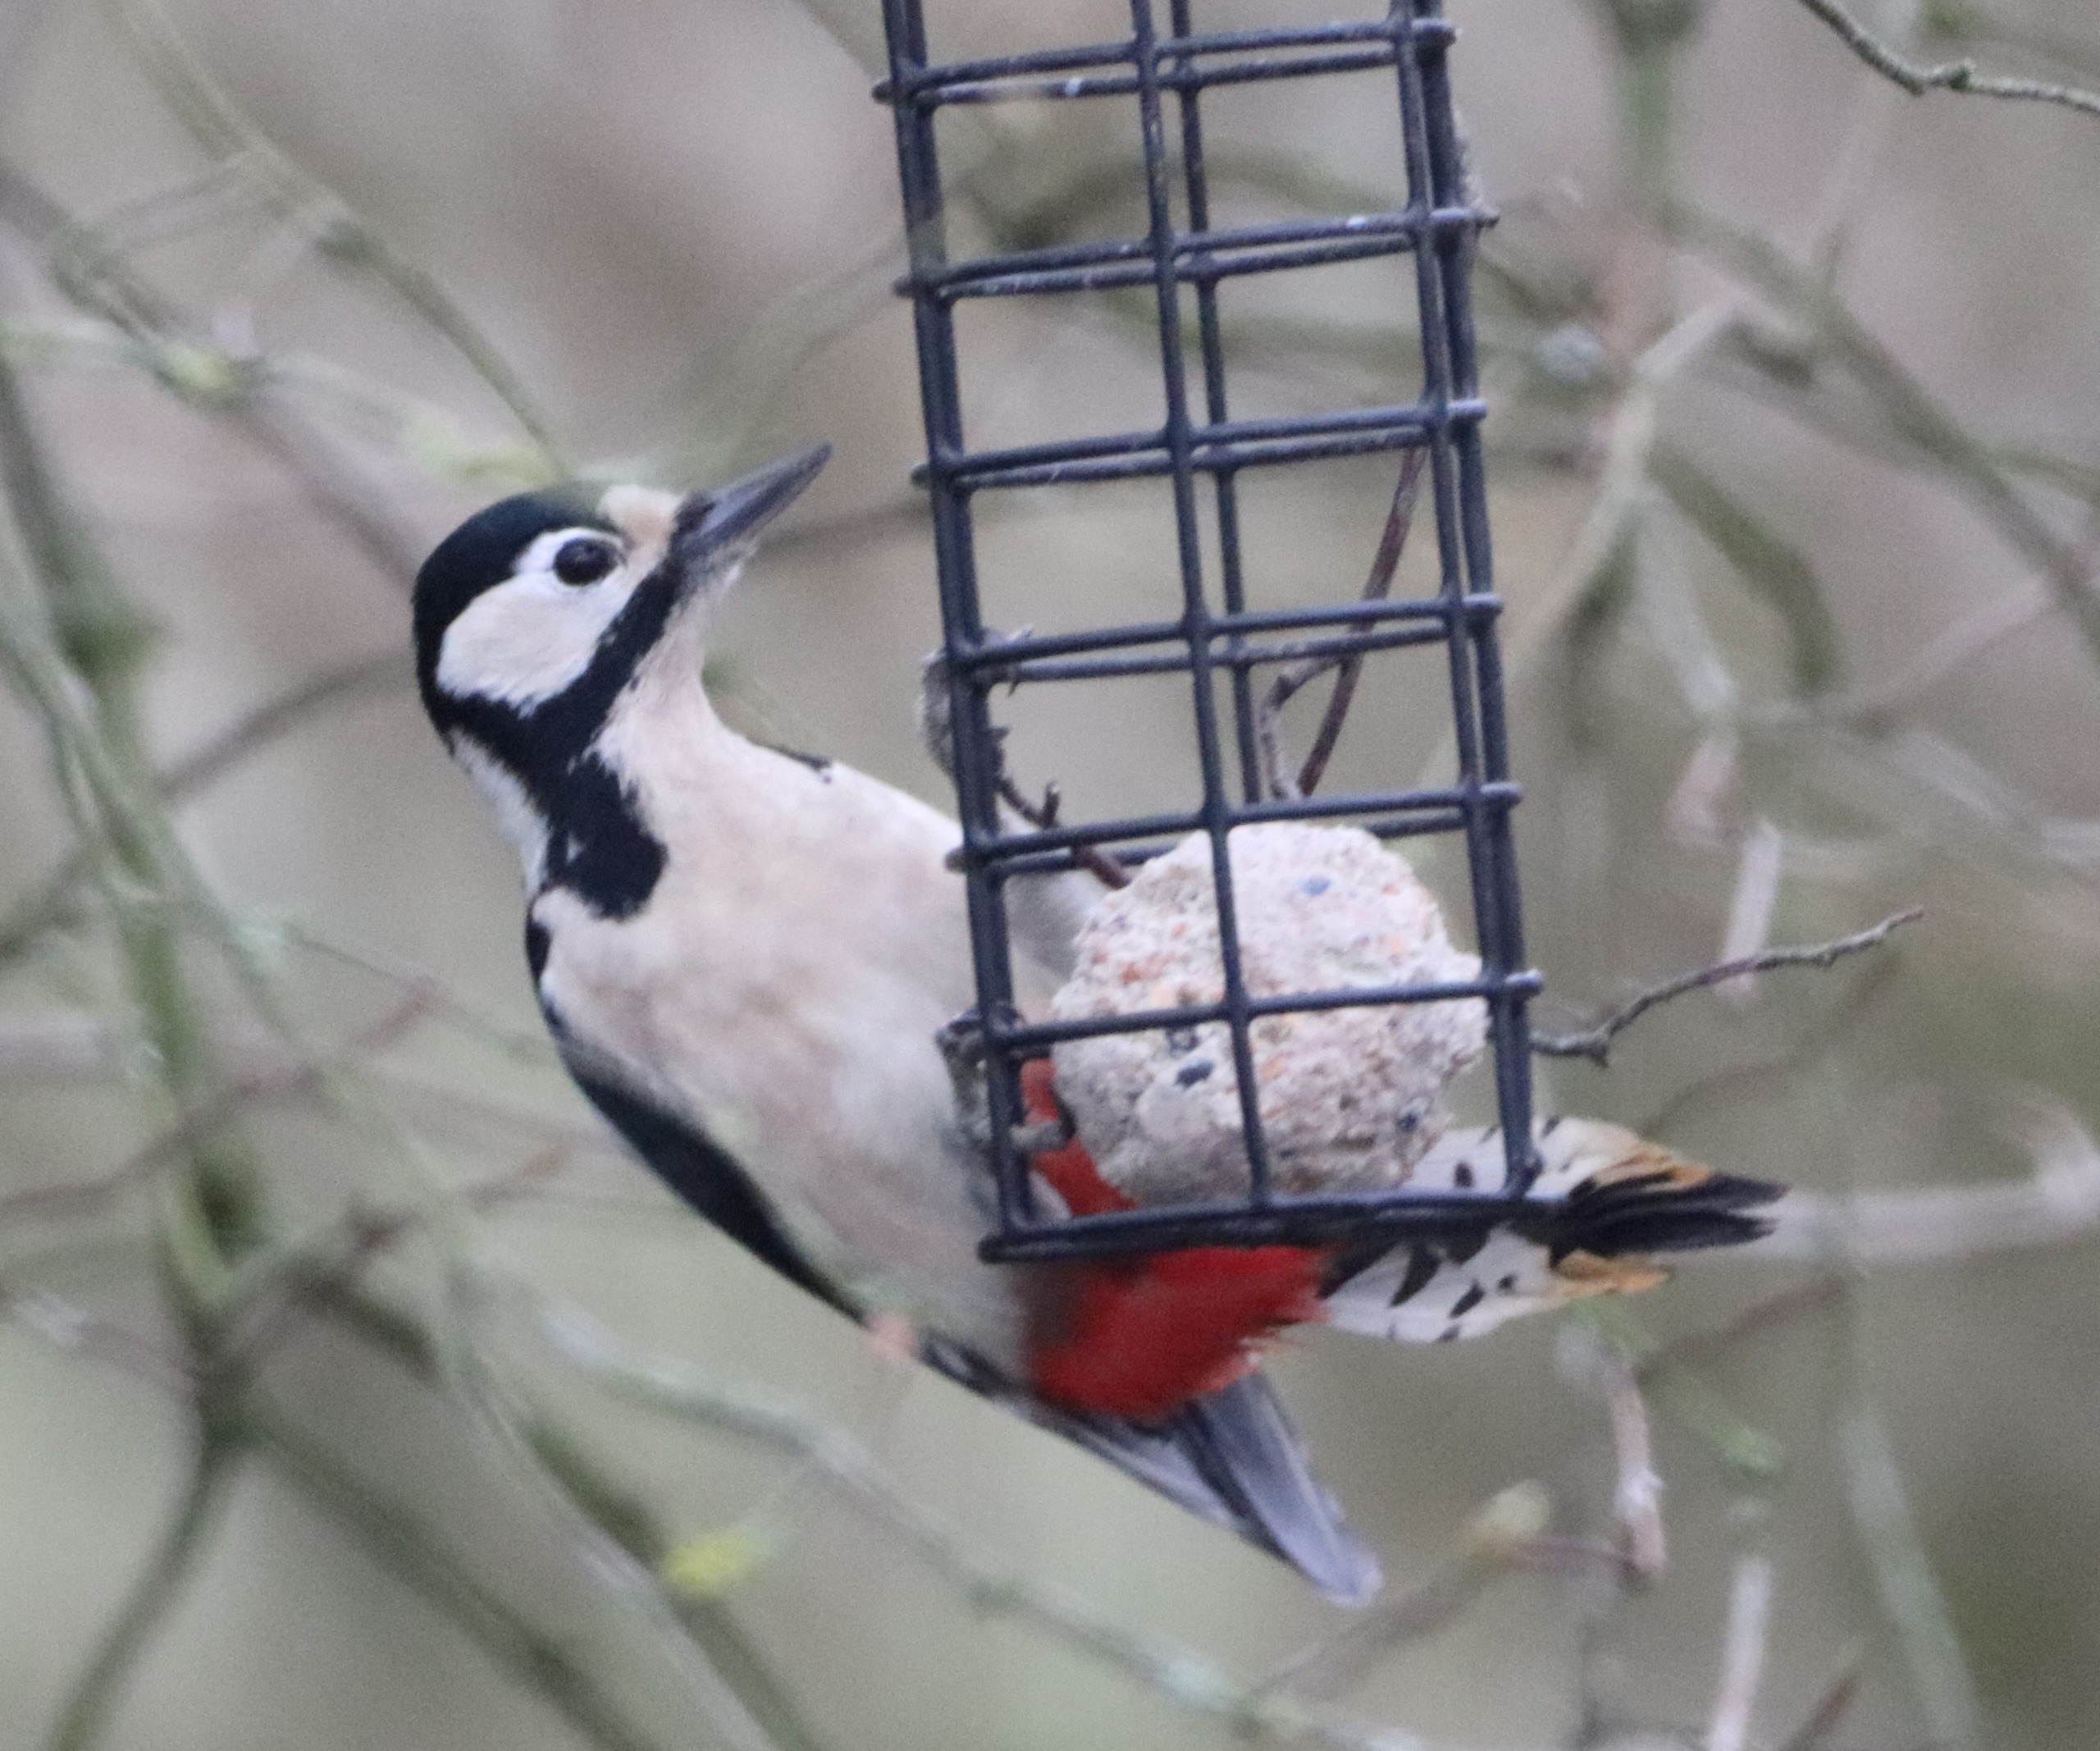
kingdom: Animalia
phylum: Chordata
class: Aves
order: Piciformes
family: Picidae
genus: Dendrocopos
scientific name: Dendrocopos major
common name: Stor flagspætte
